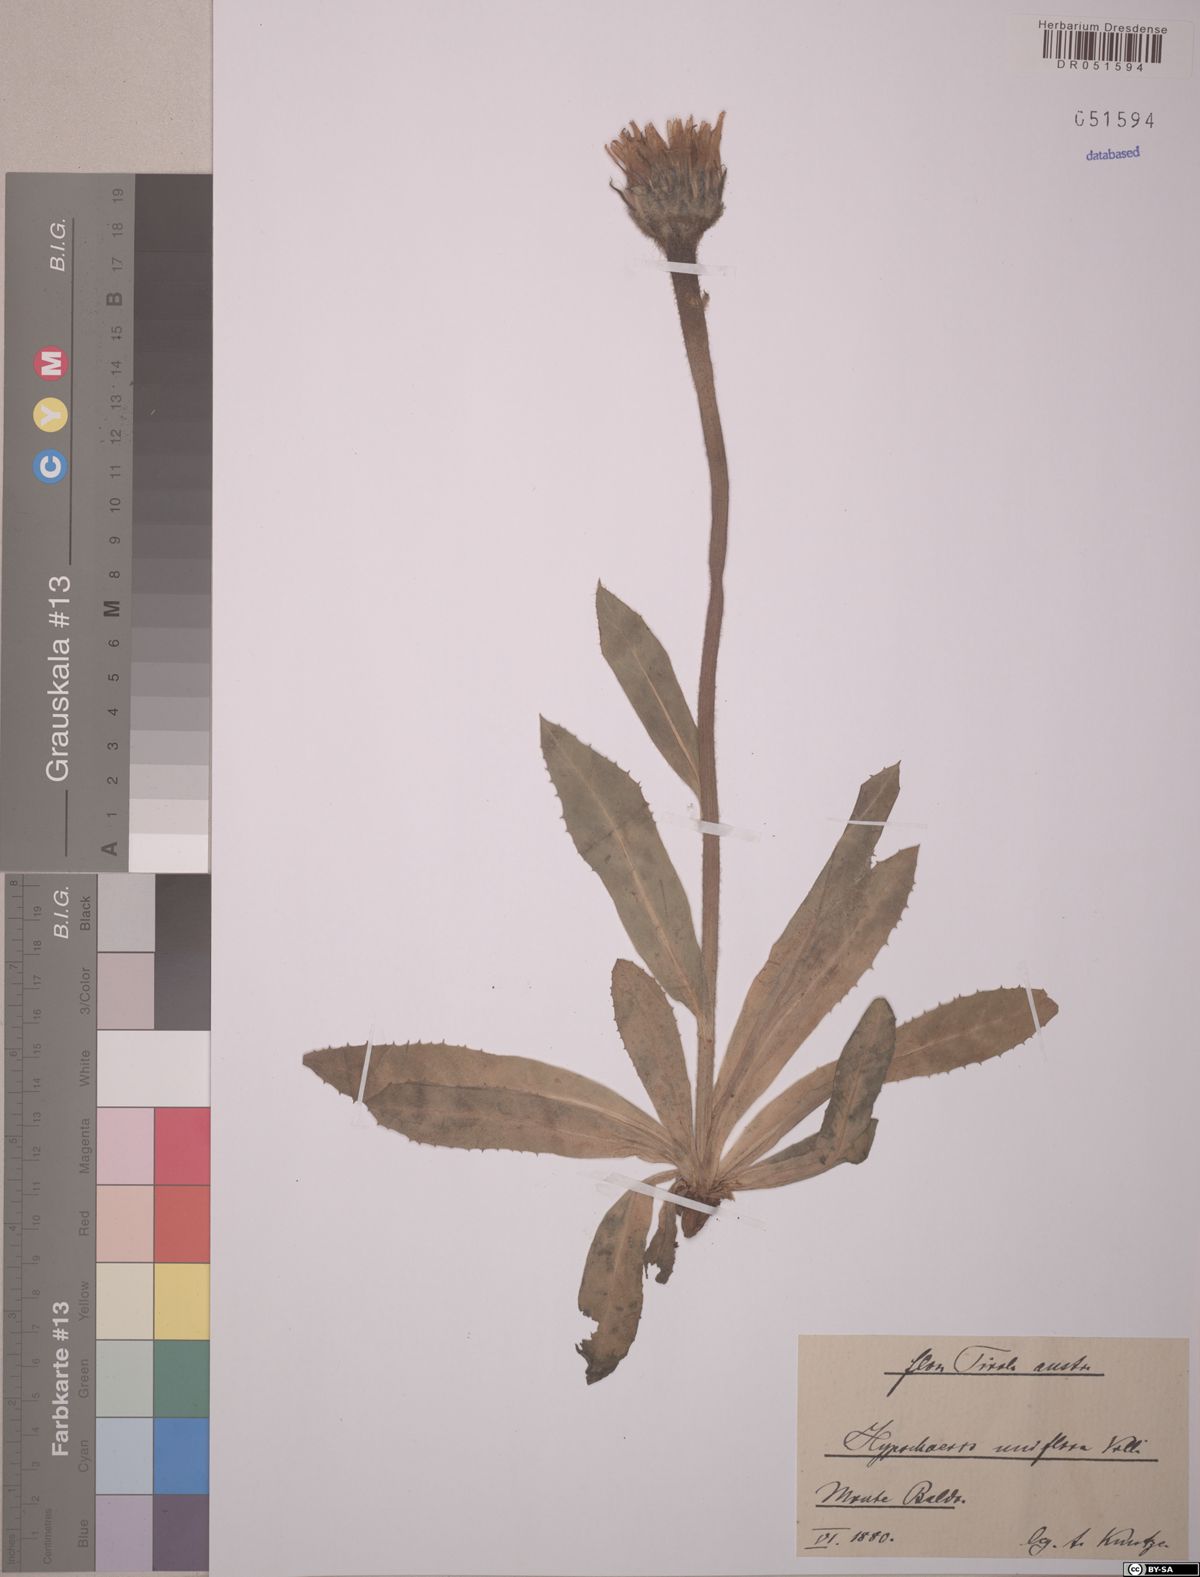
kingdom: Plantae
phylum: Tracheophyta
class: Magnoliopsida
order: Asterales
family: Asteraceae
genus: Trommsdorffia
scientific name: Trommsdorffia uniflora
